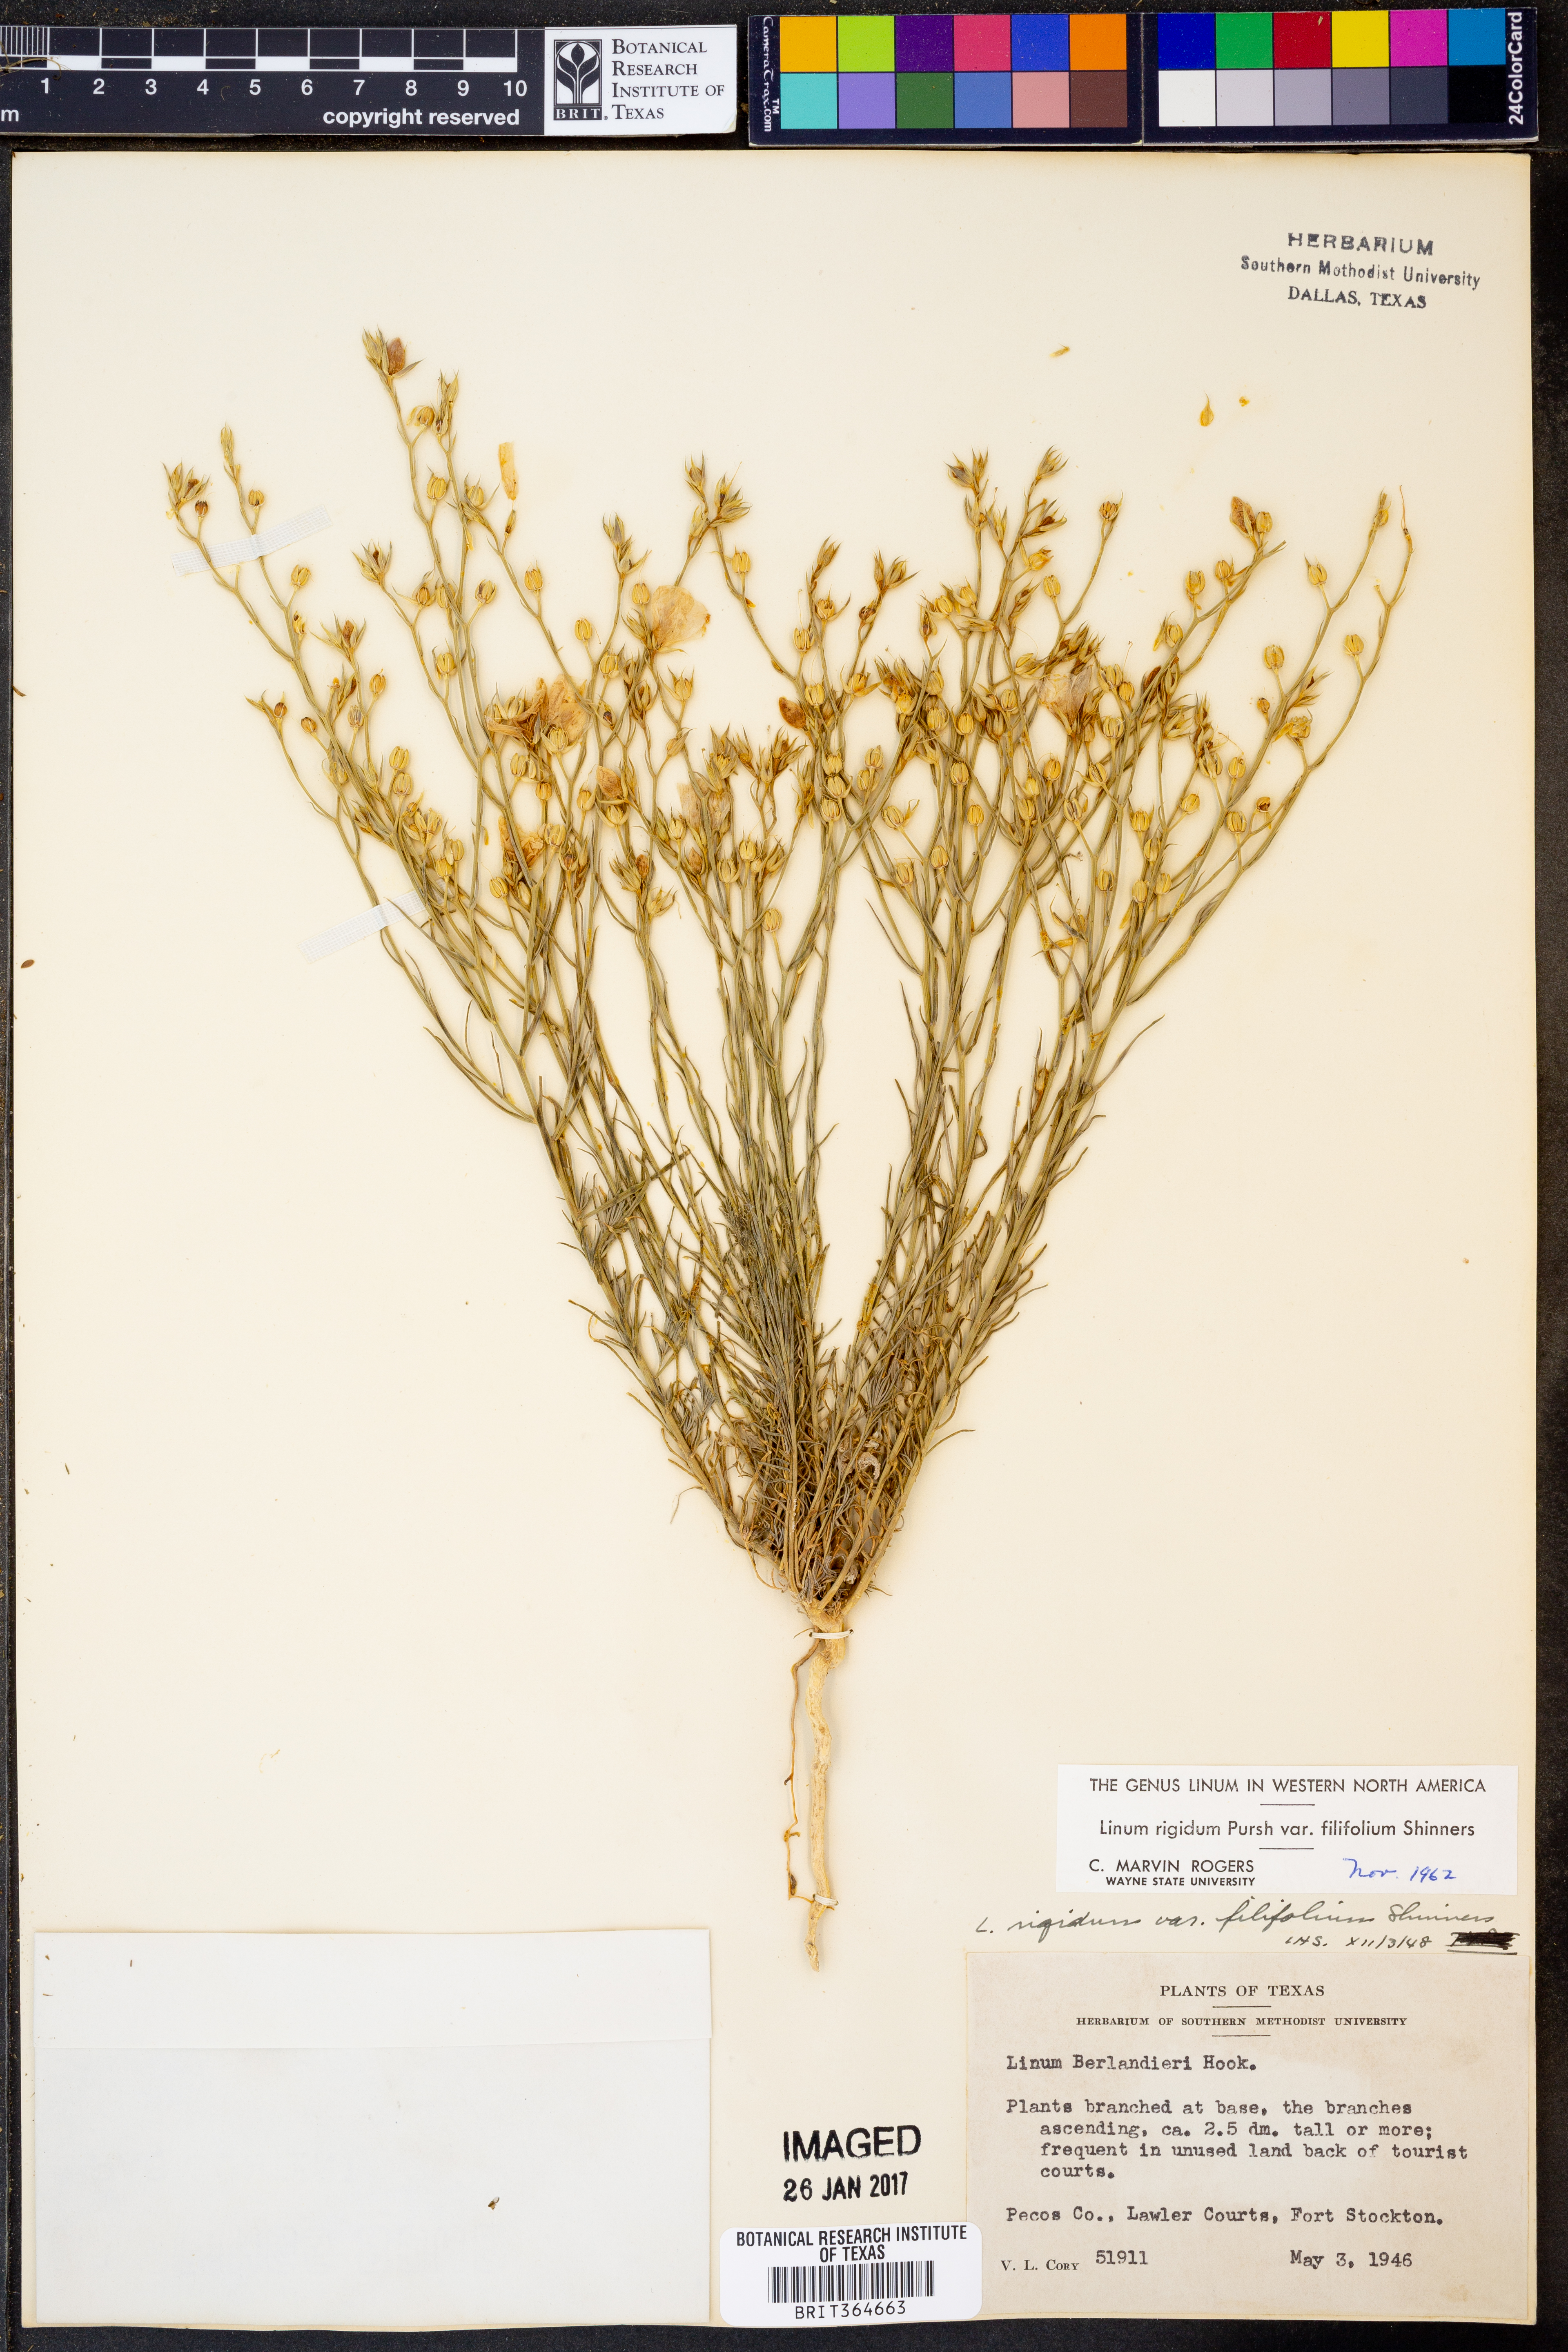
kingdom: Plantae
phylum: Tracheophyta
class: Magnoliopsida
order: Malpighiales
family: Linaceae
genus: Linum
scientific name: Linum berlandieri
